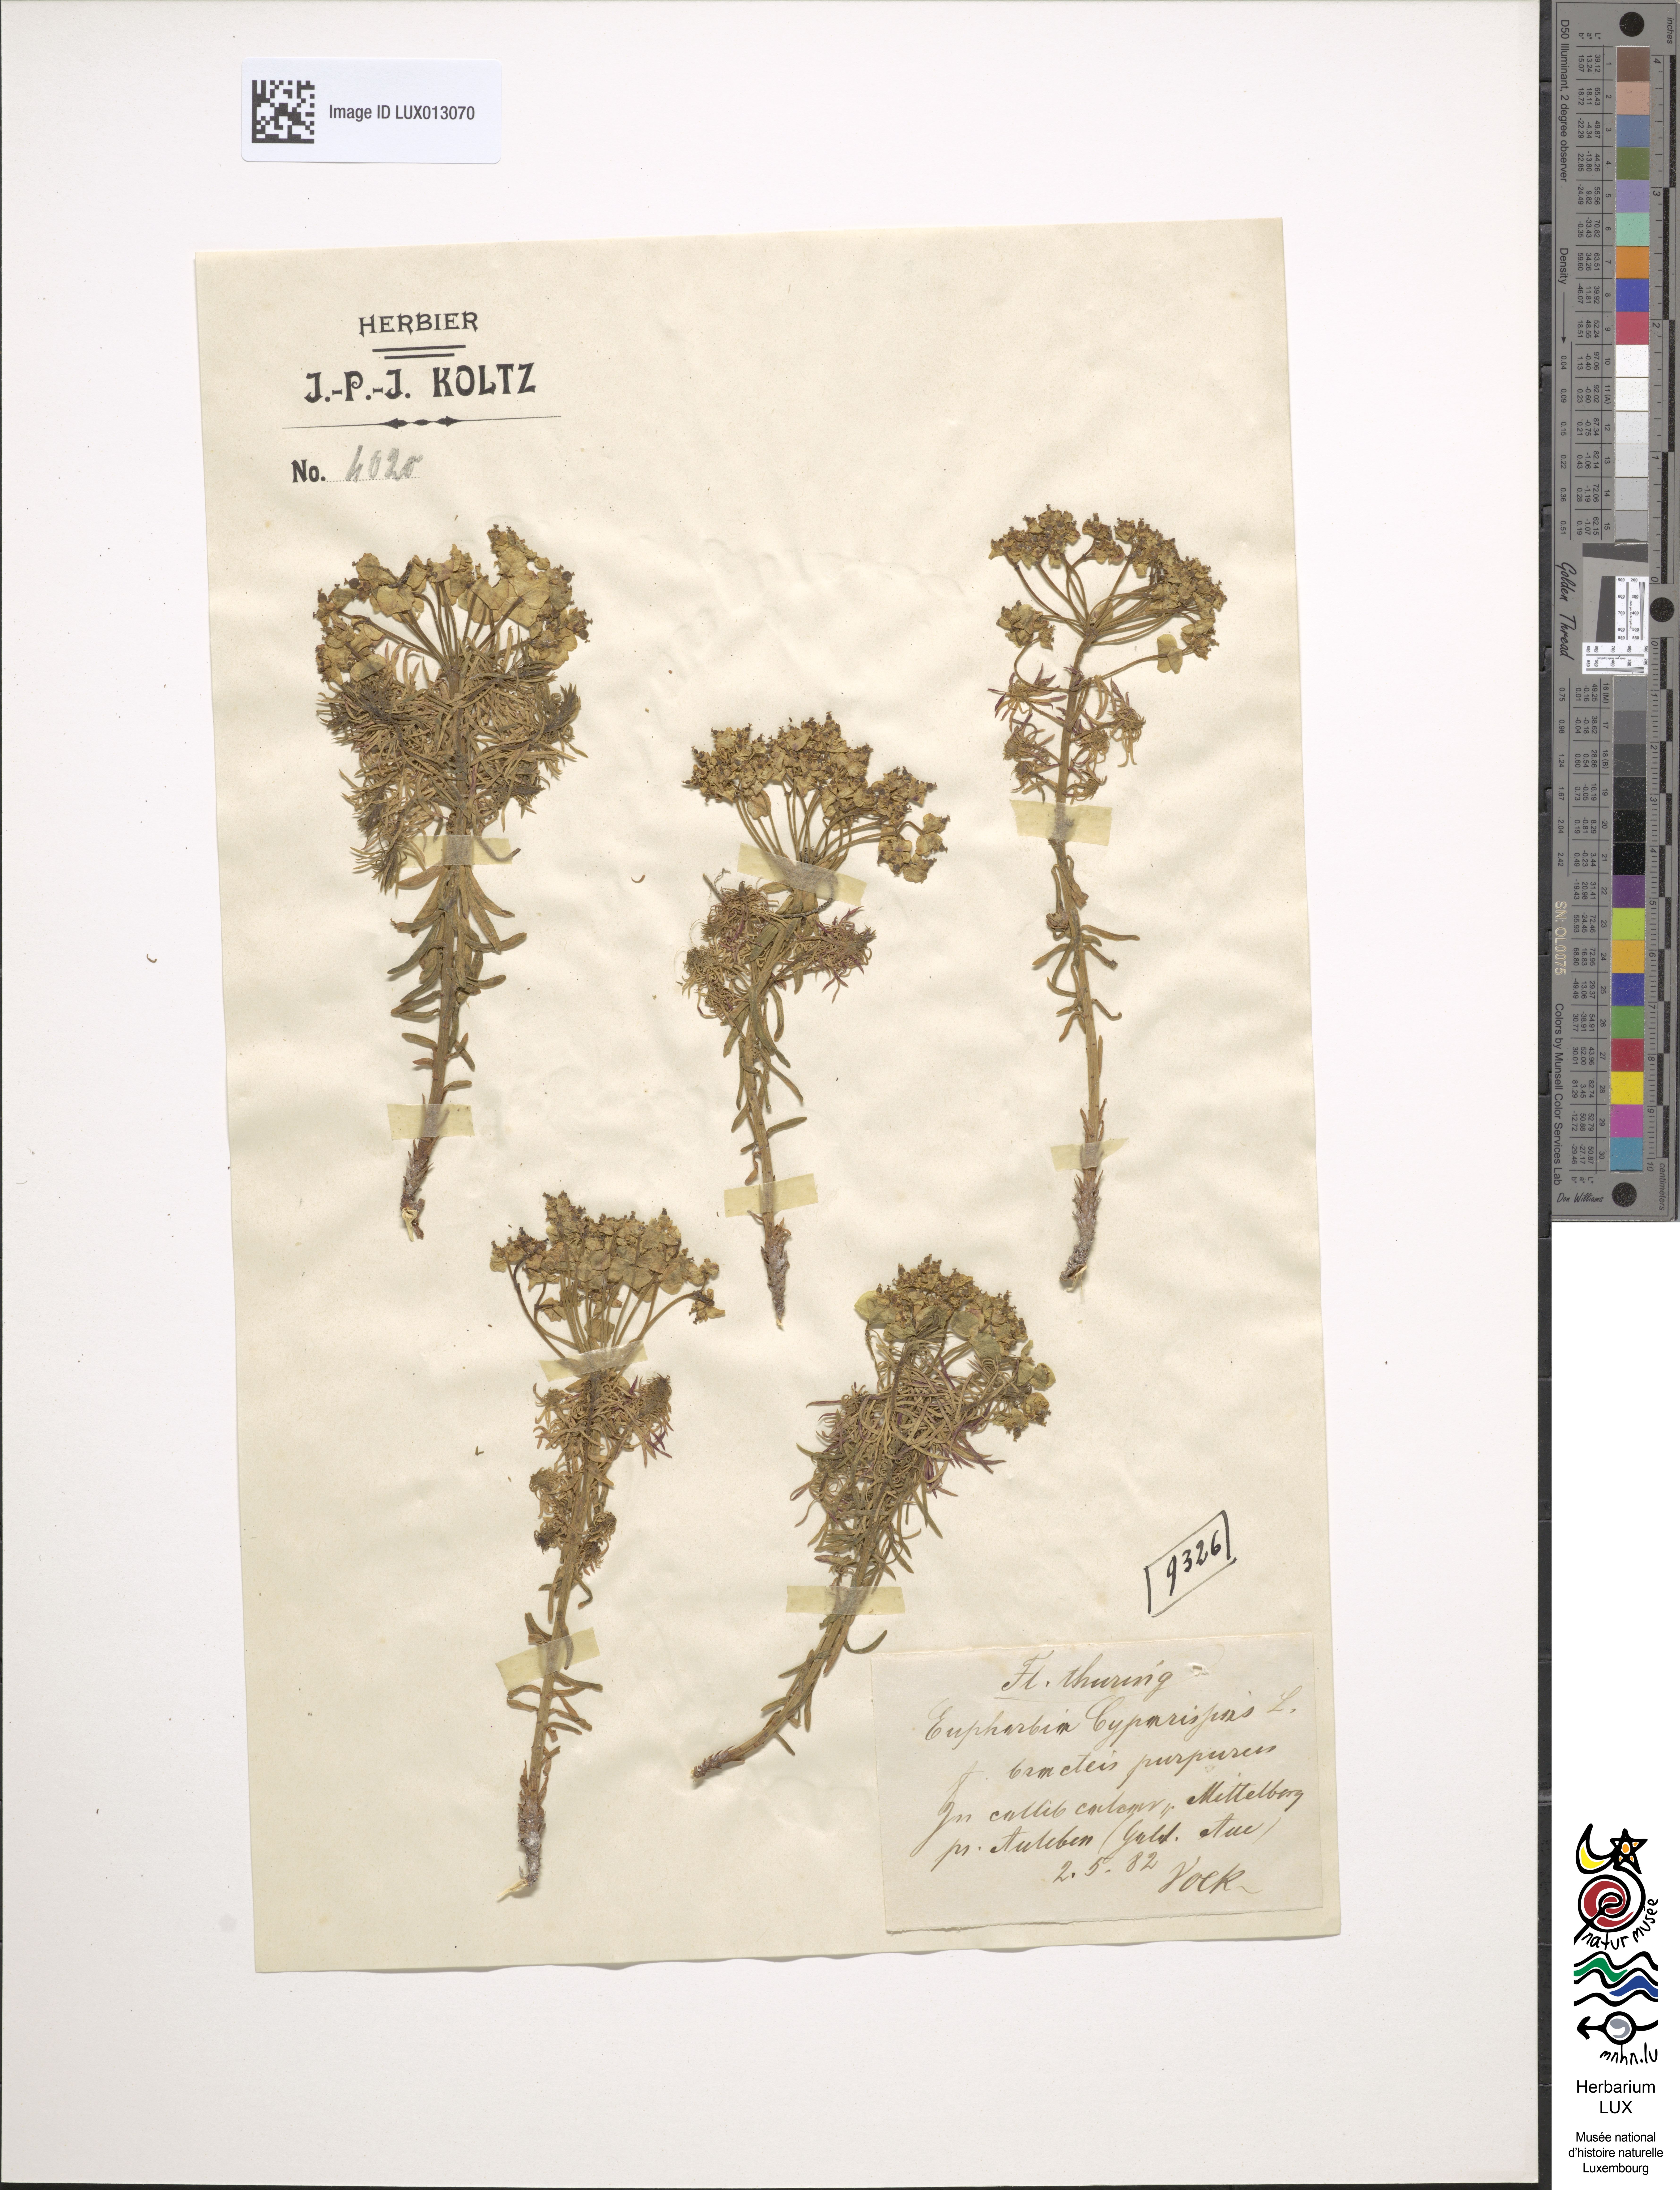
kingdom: Plantae
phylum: Tracheophyta
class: Magnoliopsida
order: Malpighiales
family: Euphorbiaceae
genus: Euphorbia
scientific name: Euphorbia cyparissias
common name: Cypress spurge
